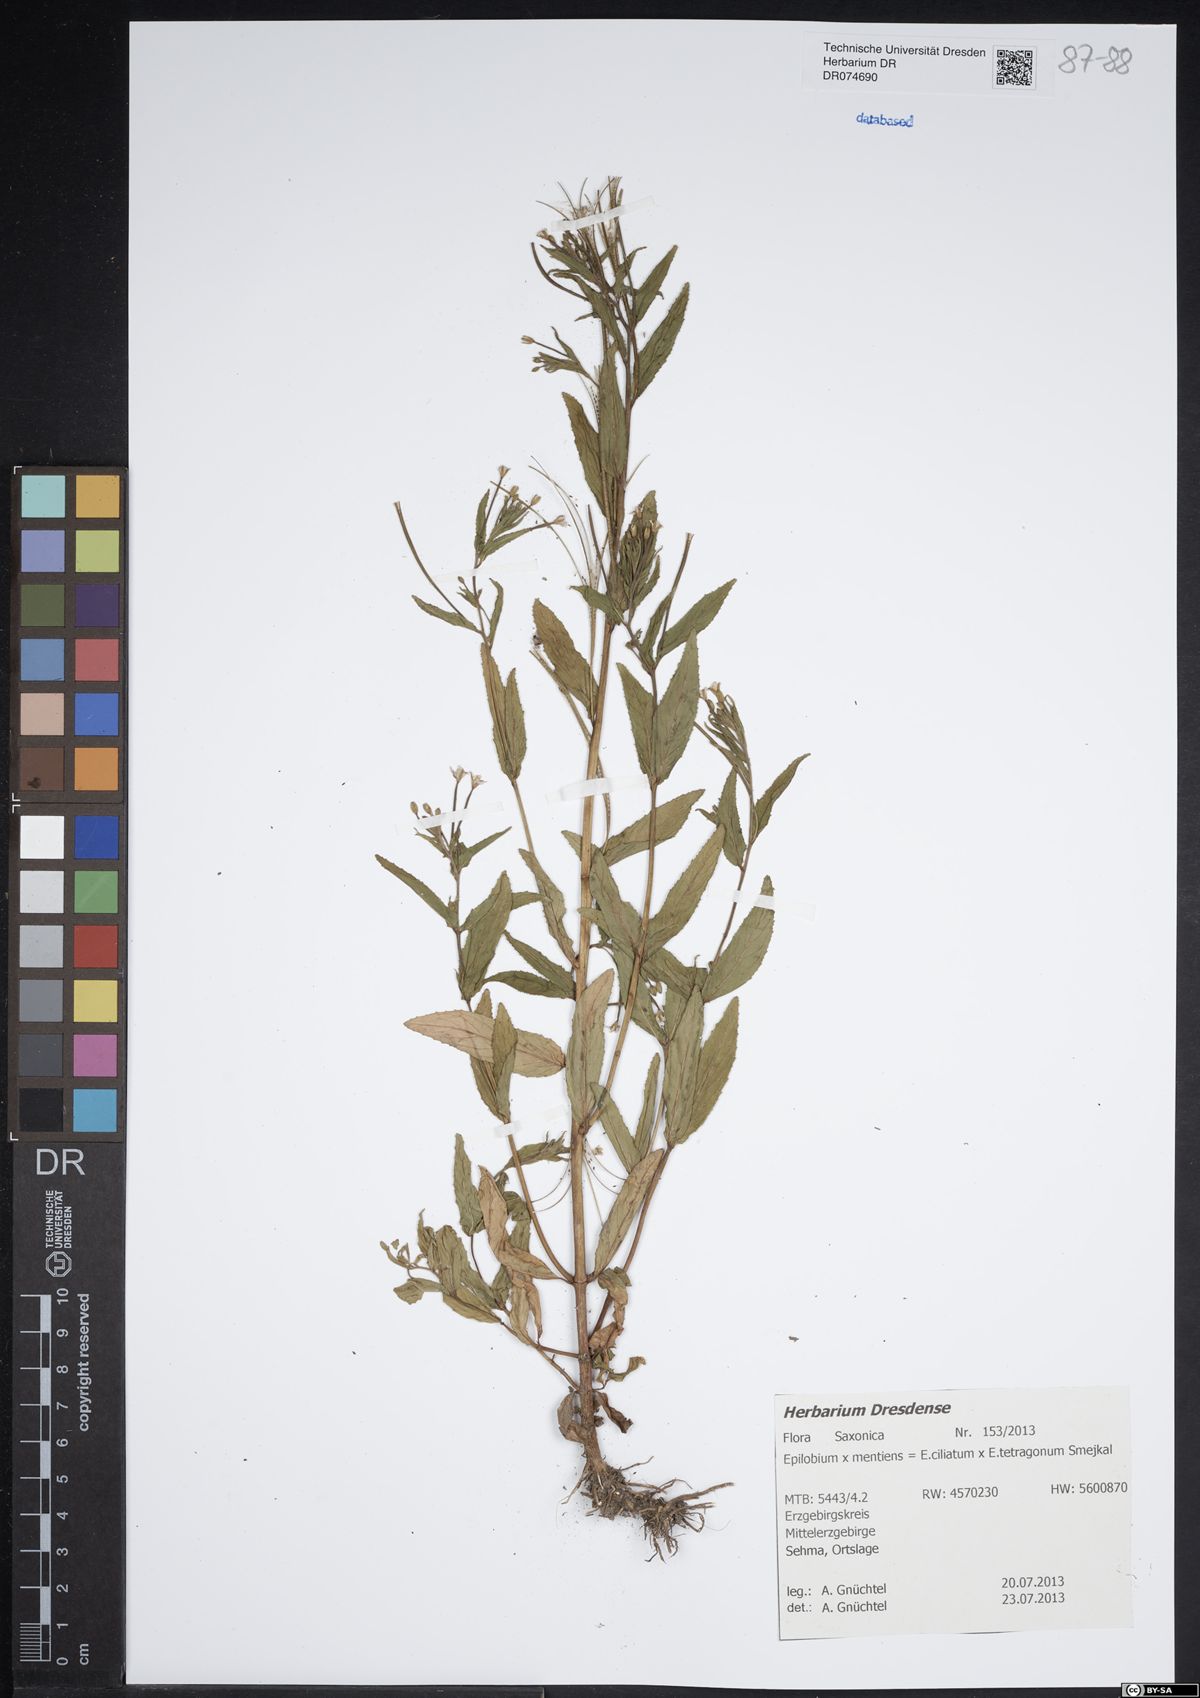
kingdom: Plantae
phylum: Tracheophyta
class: Magnoliopsida
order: Myrtales
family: Onagraceae
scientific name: Onagraceae
